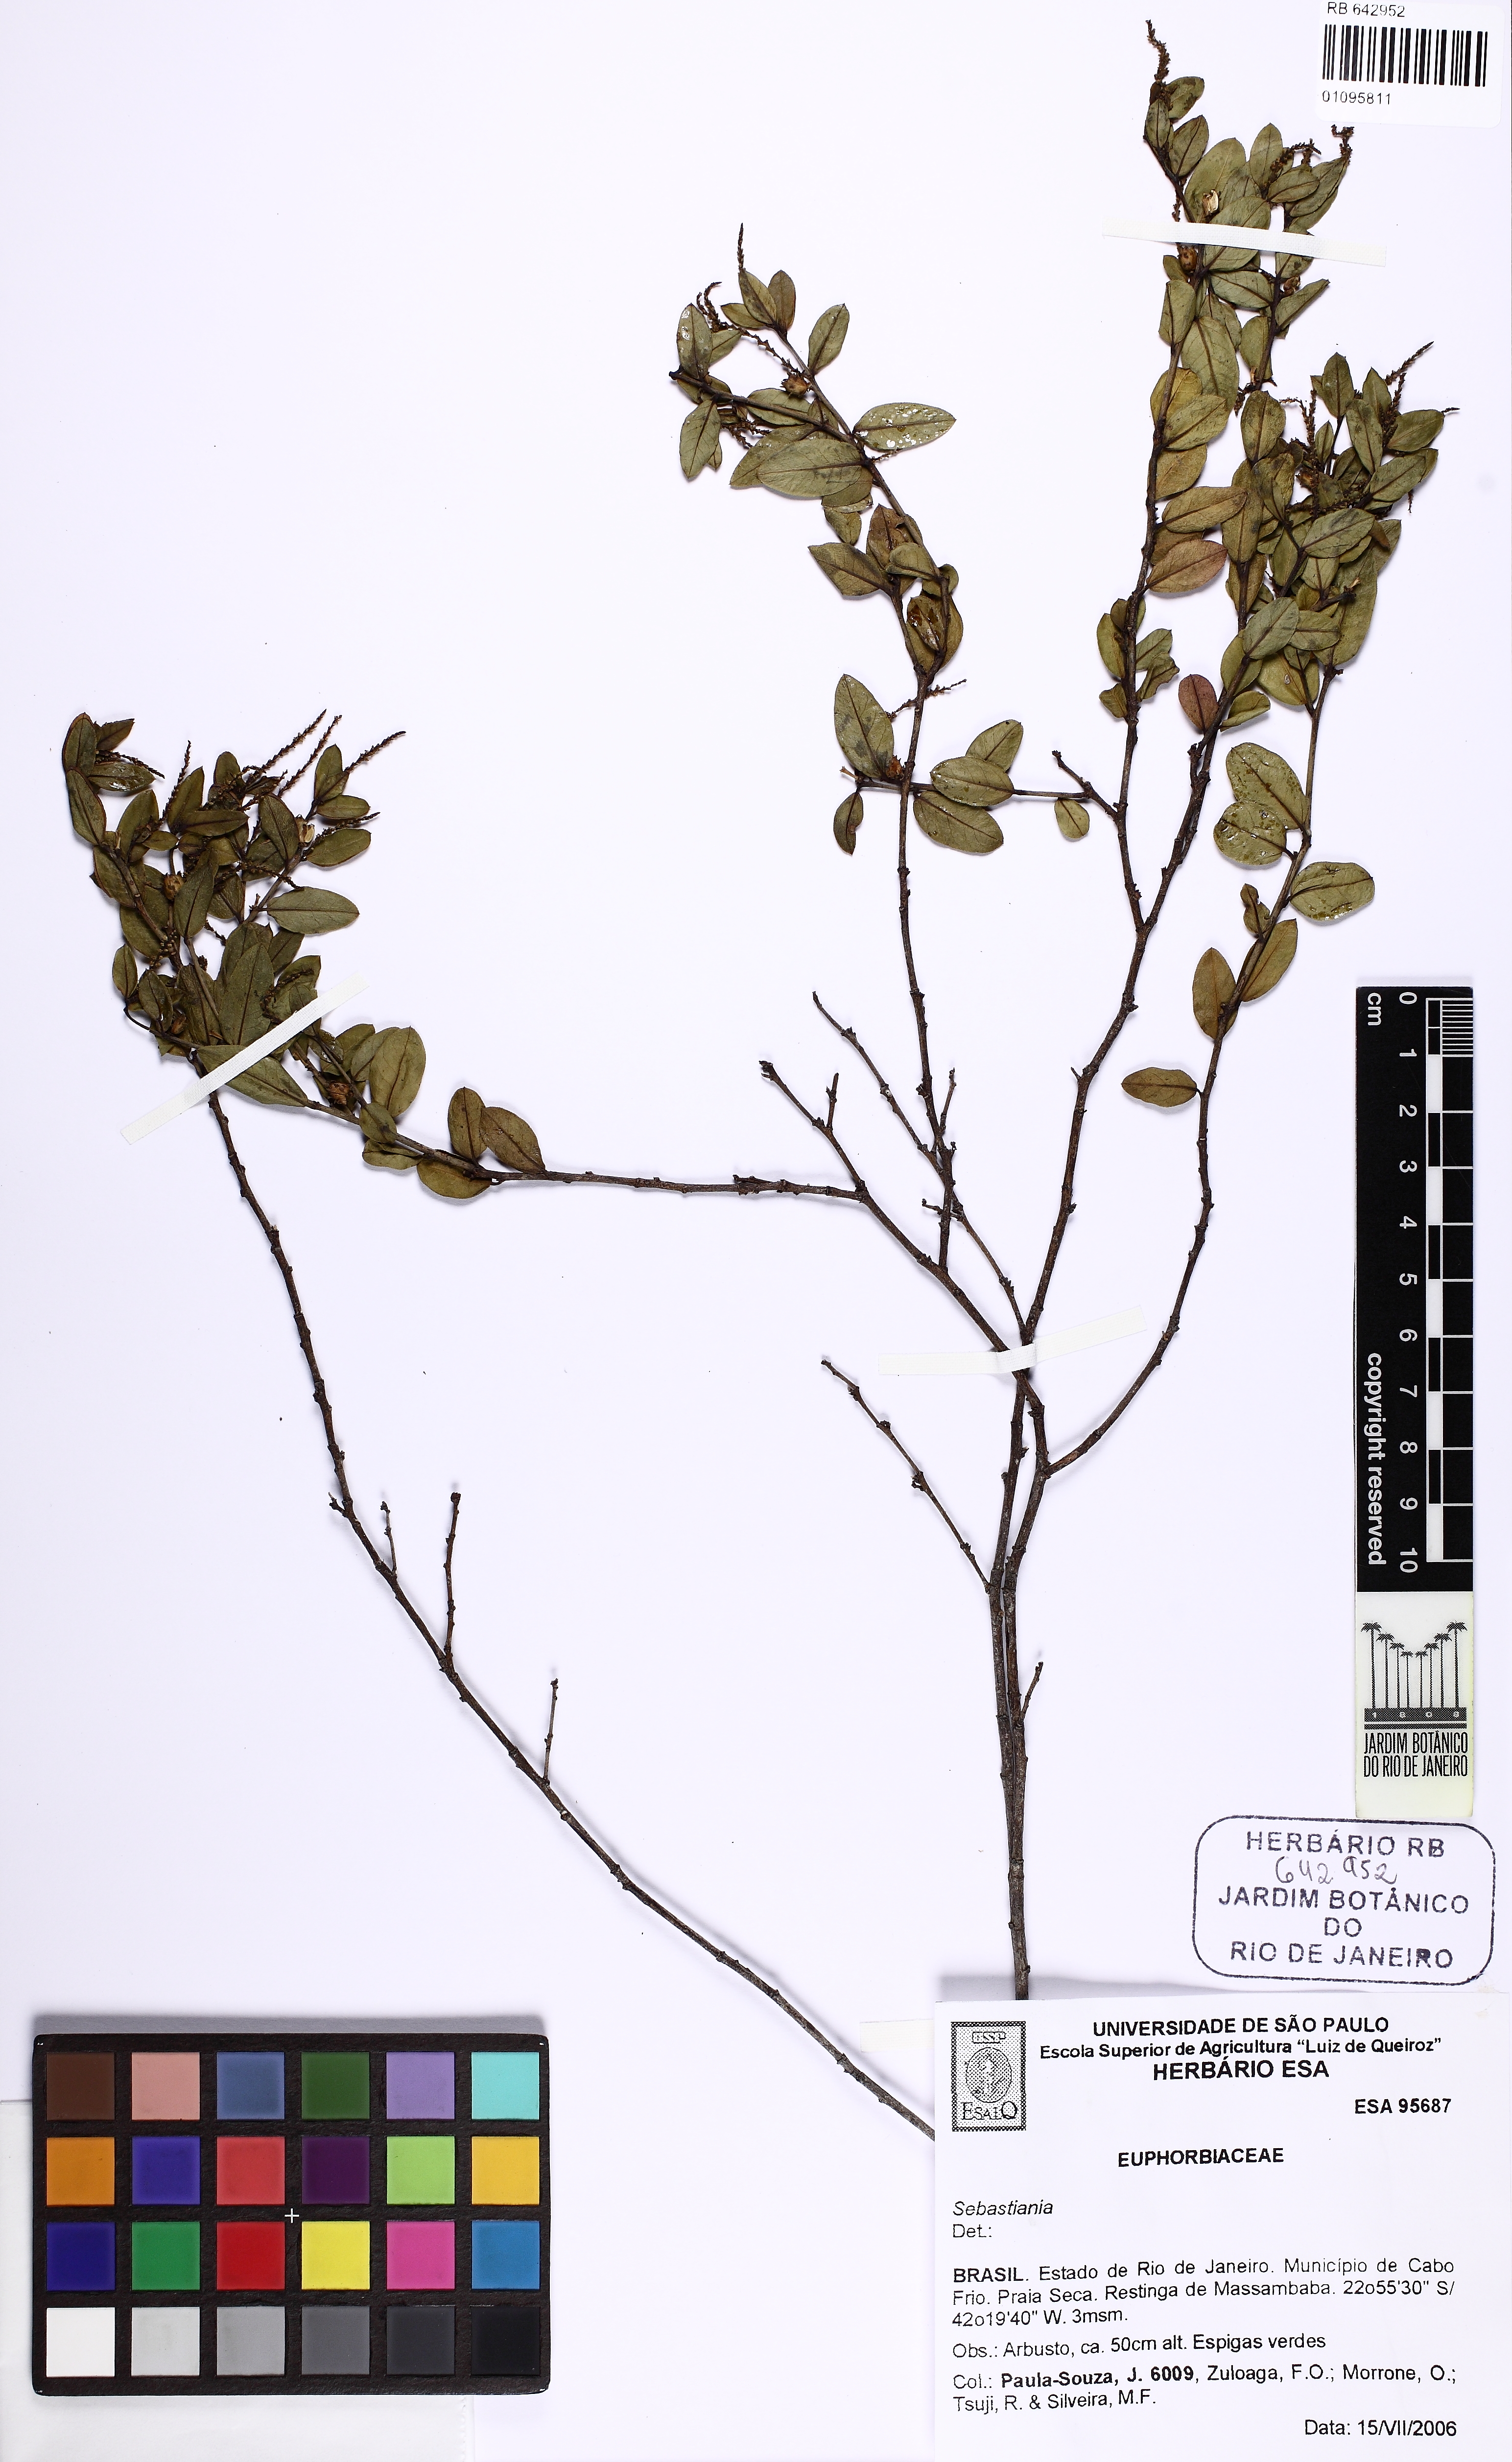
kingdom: Plantae
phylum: Tracheophyta
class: Magnoliopsida
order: Malpighiales
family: Euphorbiaceae
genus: Sebastiania
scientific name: Sebastiania
